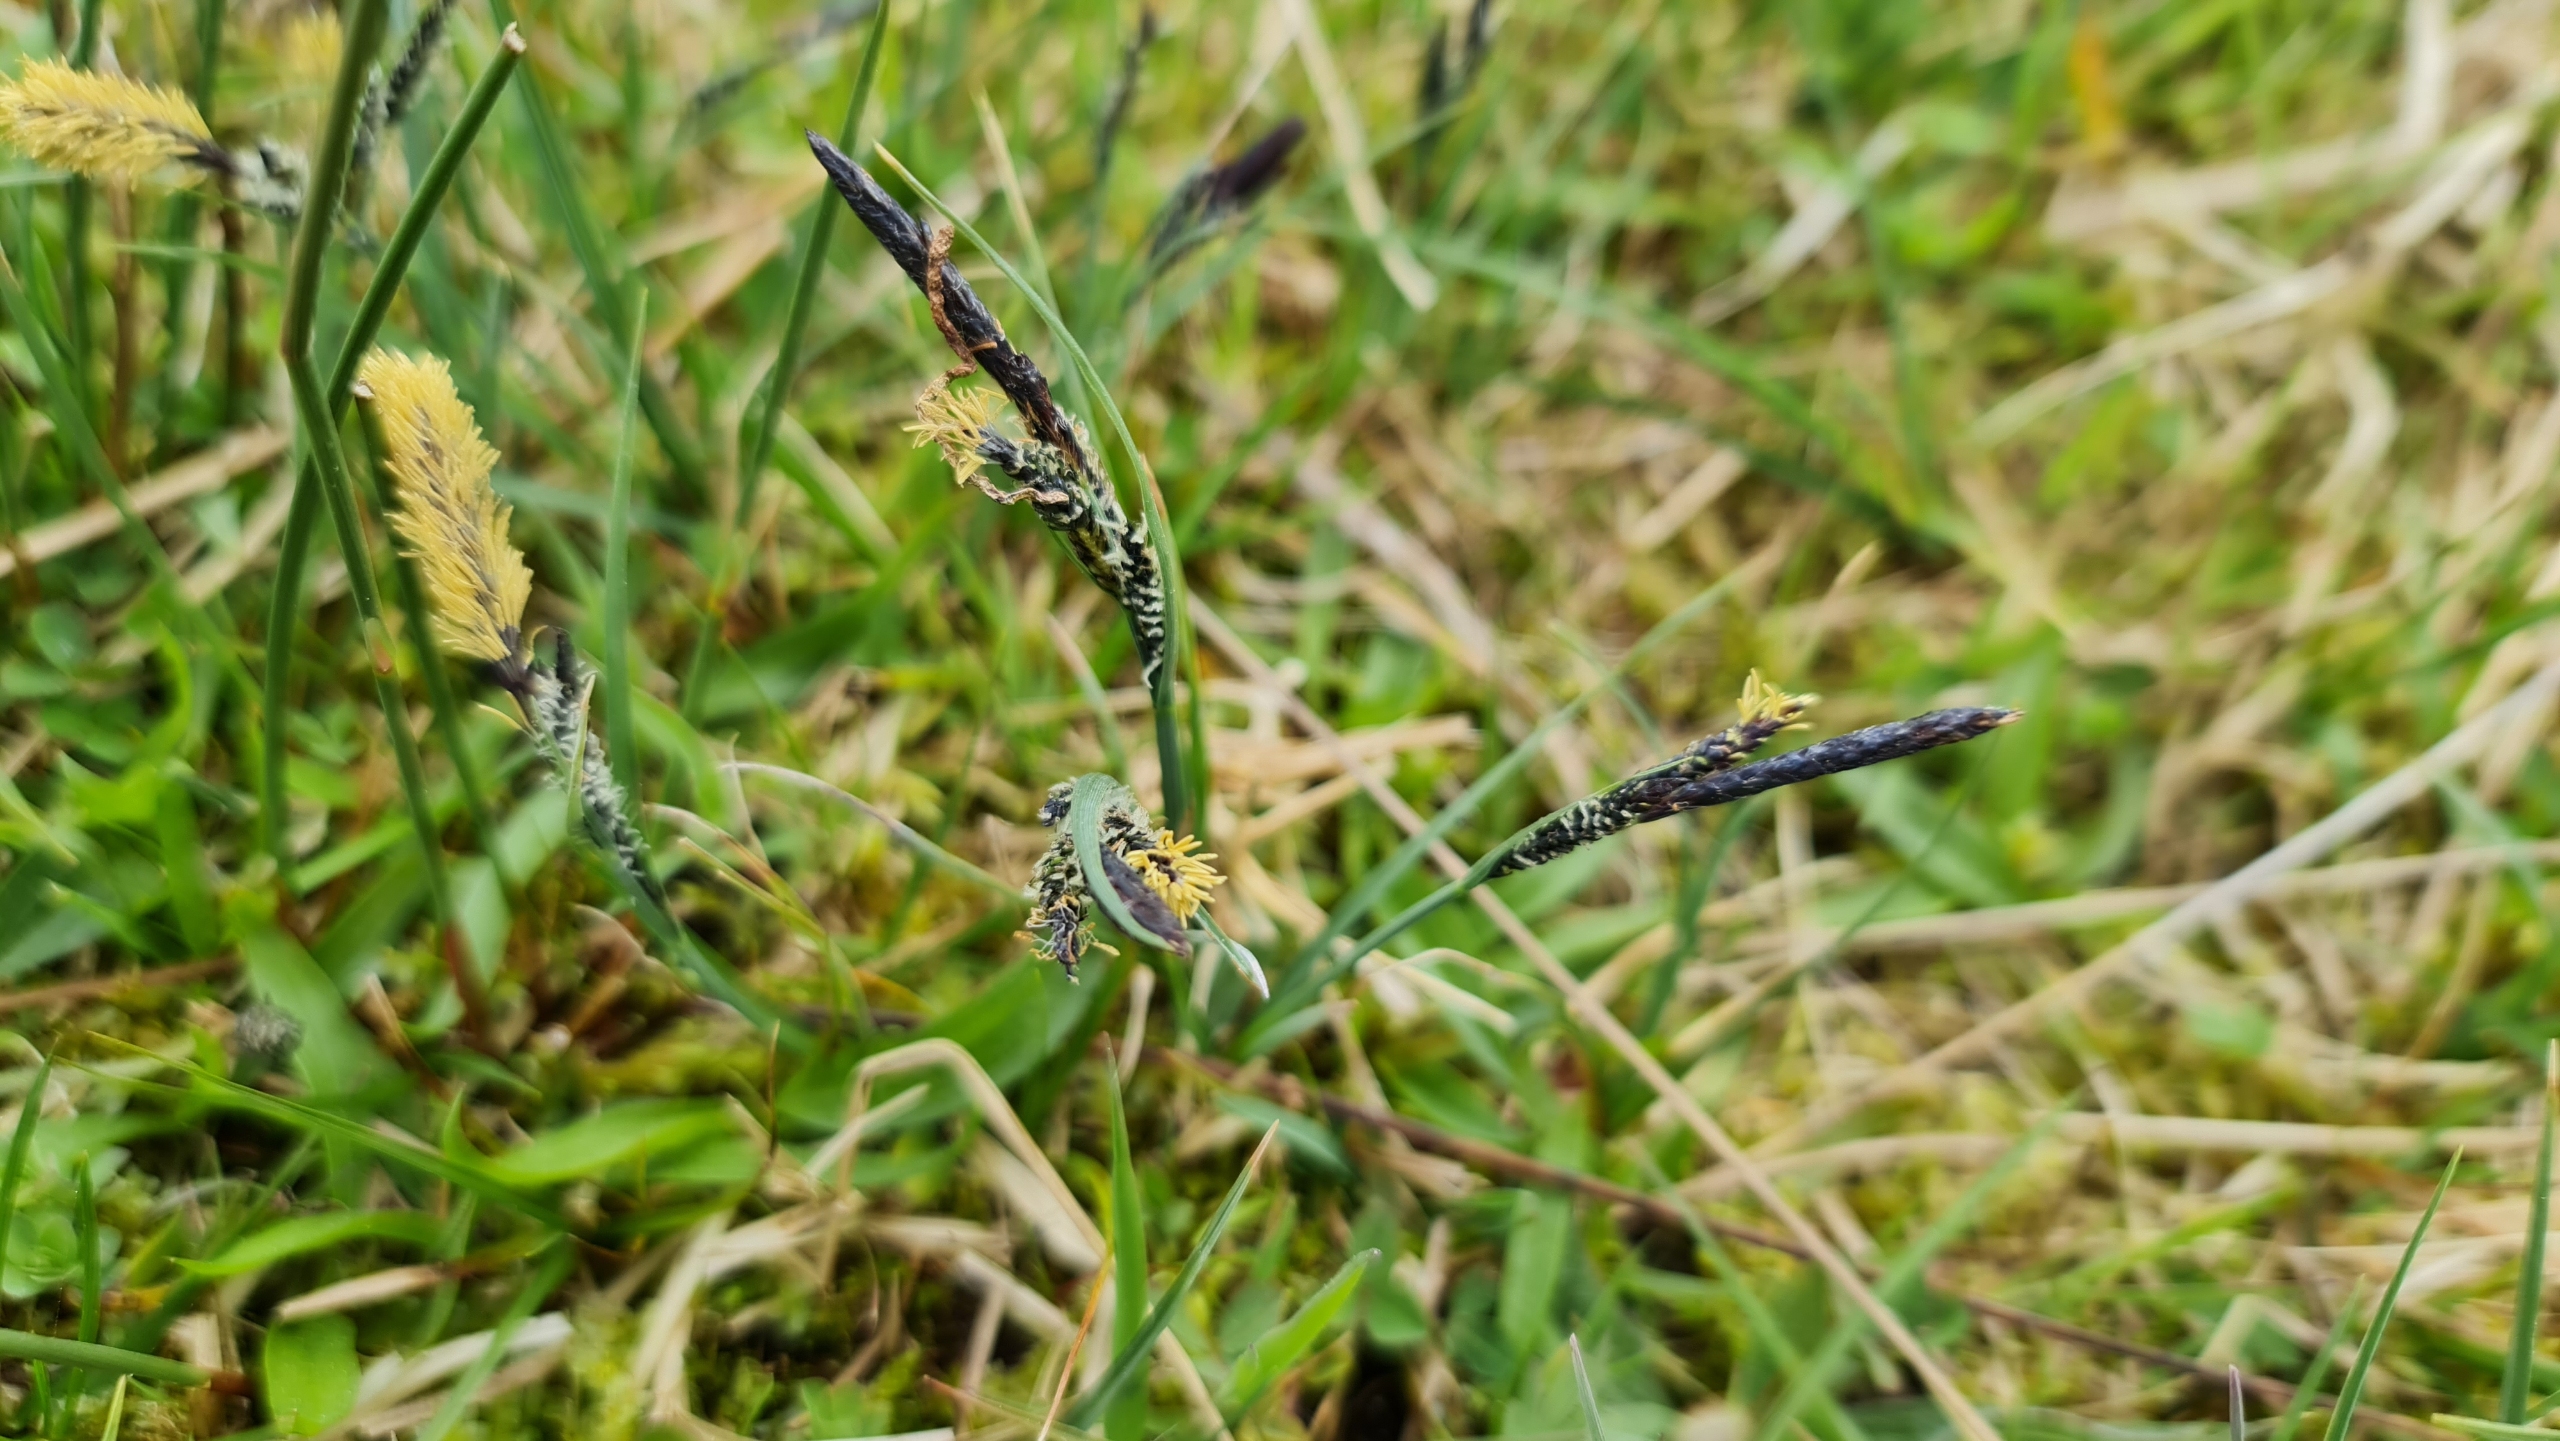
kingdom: Plantae
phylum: Tracheophyta
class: Liliopsida
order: Poales
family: Cyperaceae
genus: Carex
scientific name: Carex
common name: Starslægten
